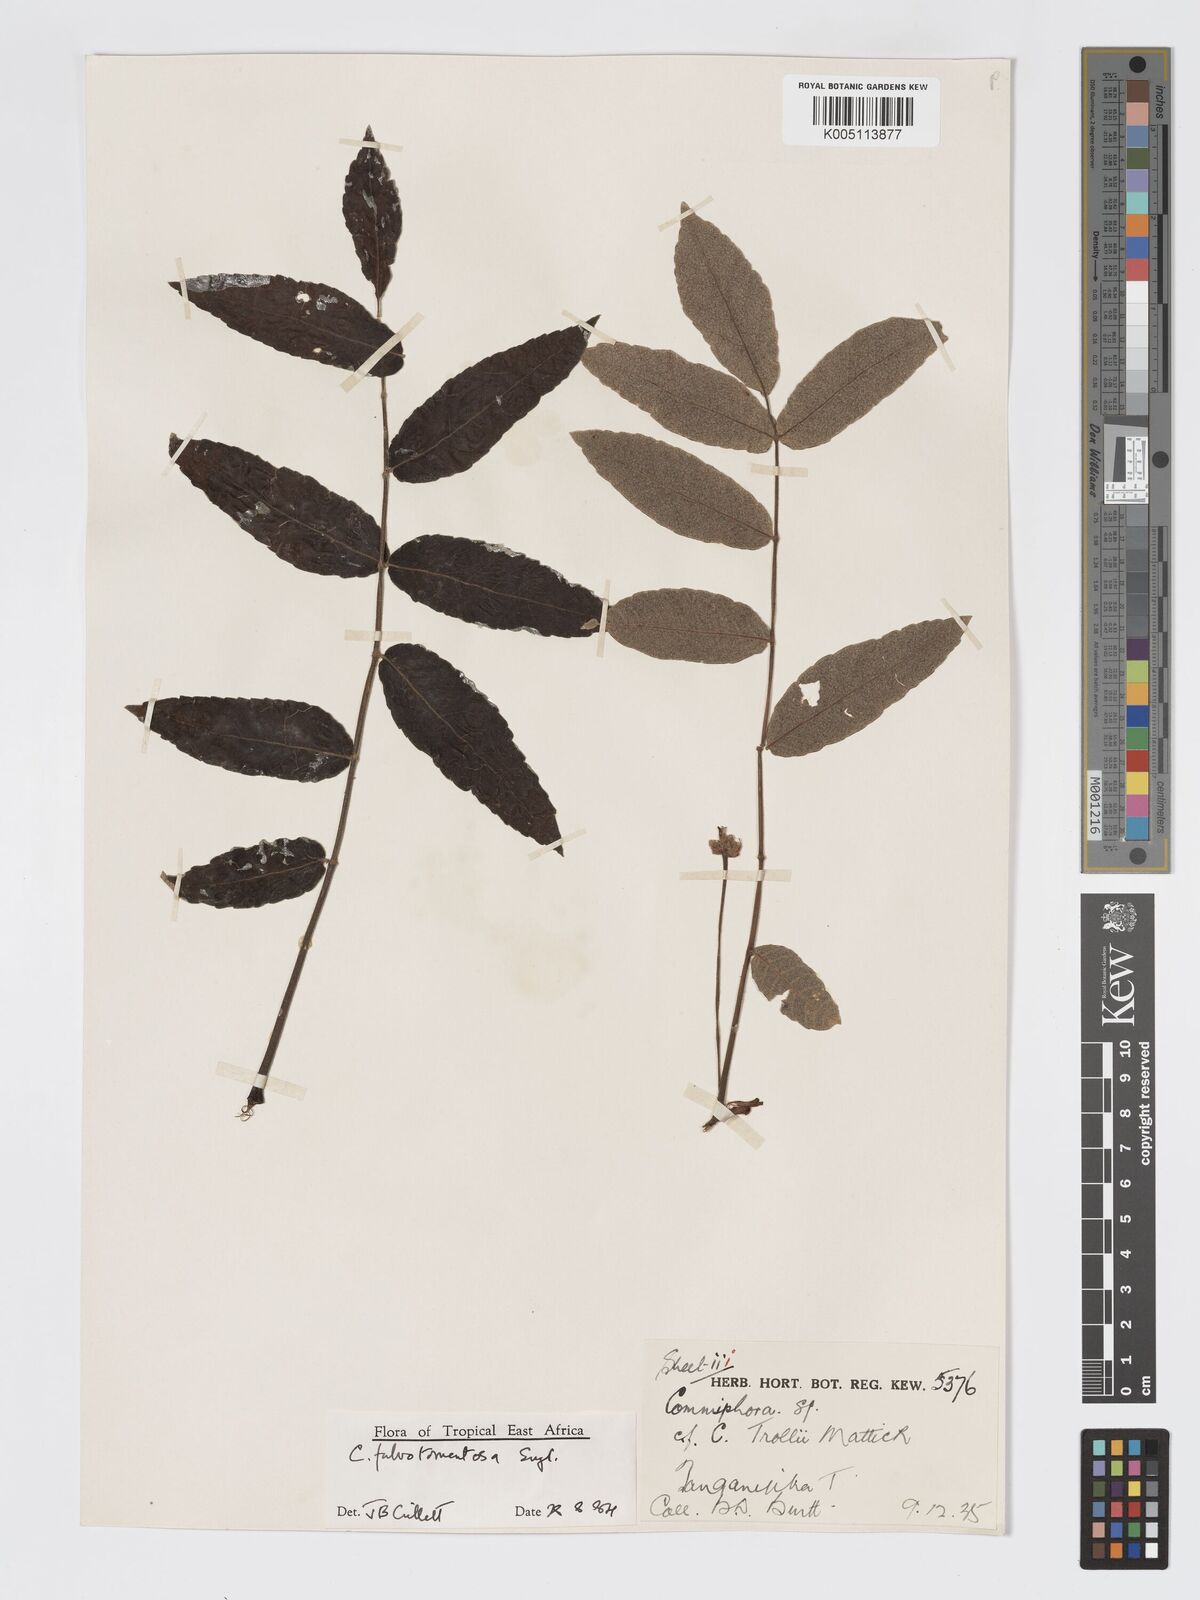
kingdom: Plantae
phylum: Tracheophyta
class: Magnoliopsida
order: Sapindales
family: Burseraceae
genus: Commiphora
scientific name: Commiphora fulvotomentosa
